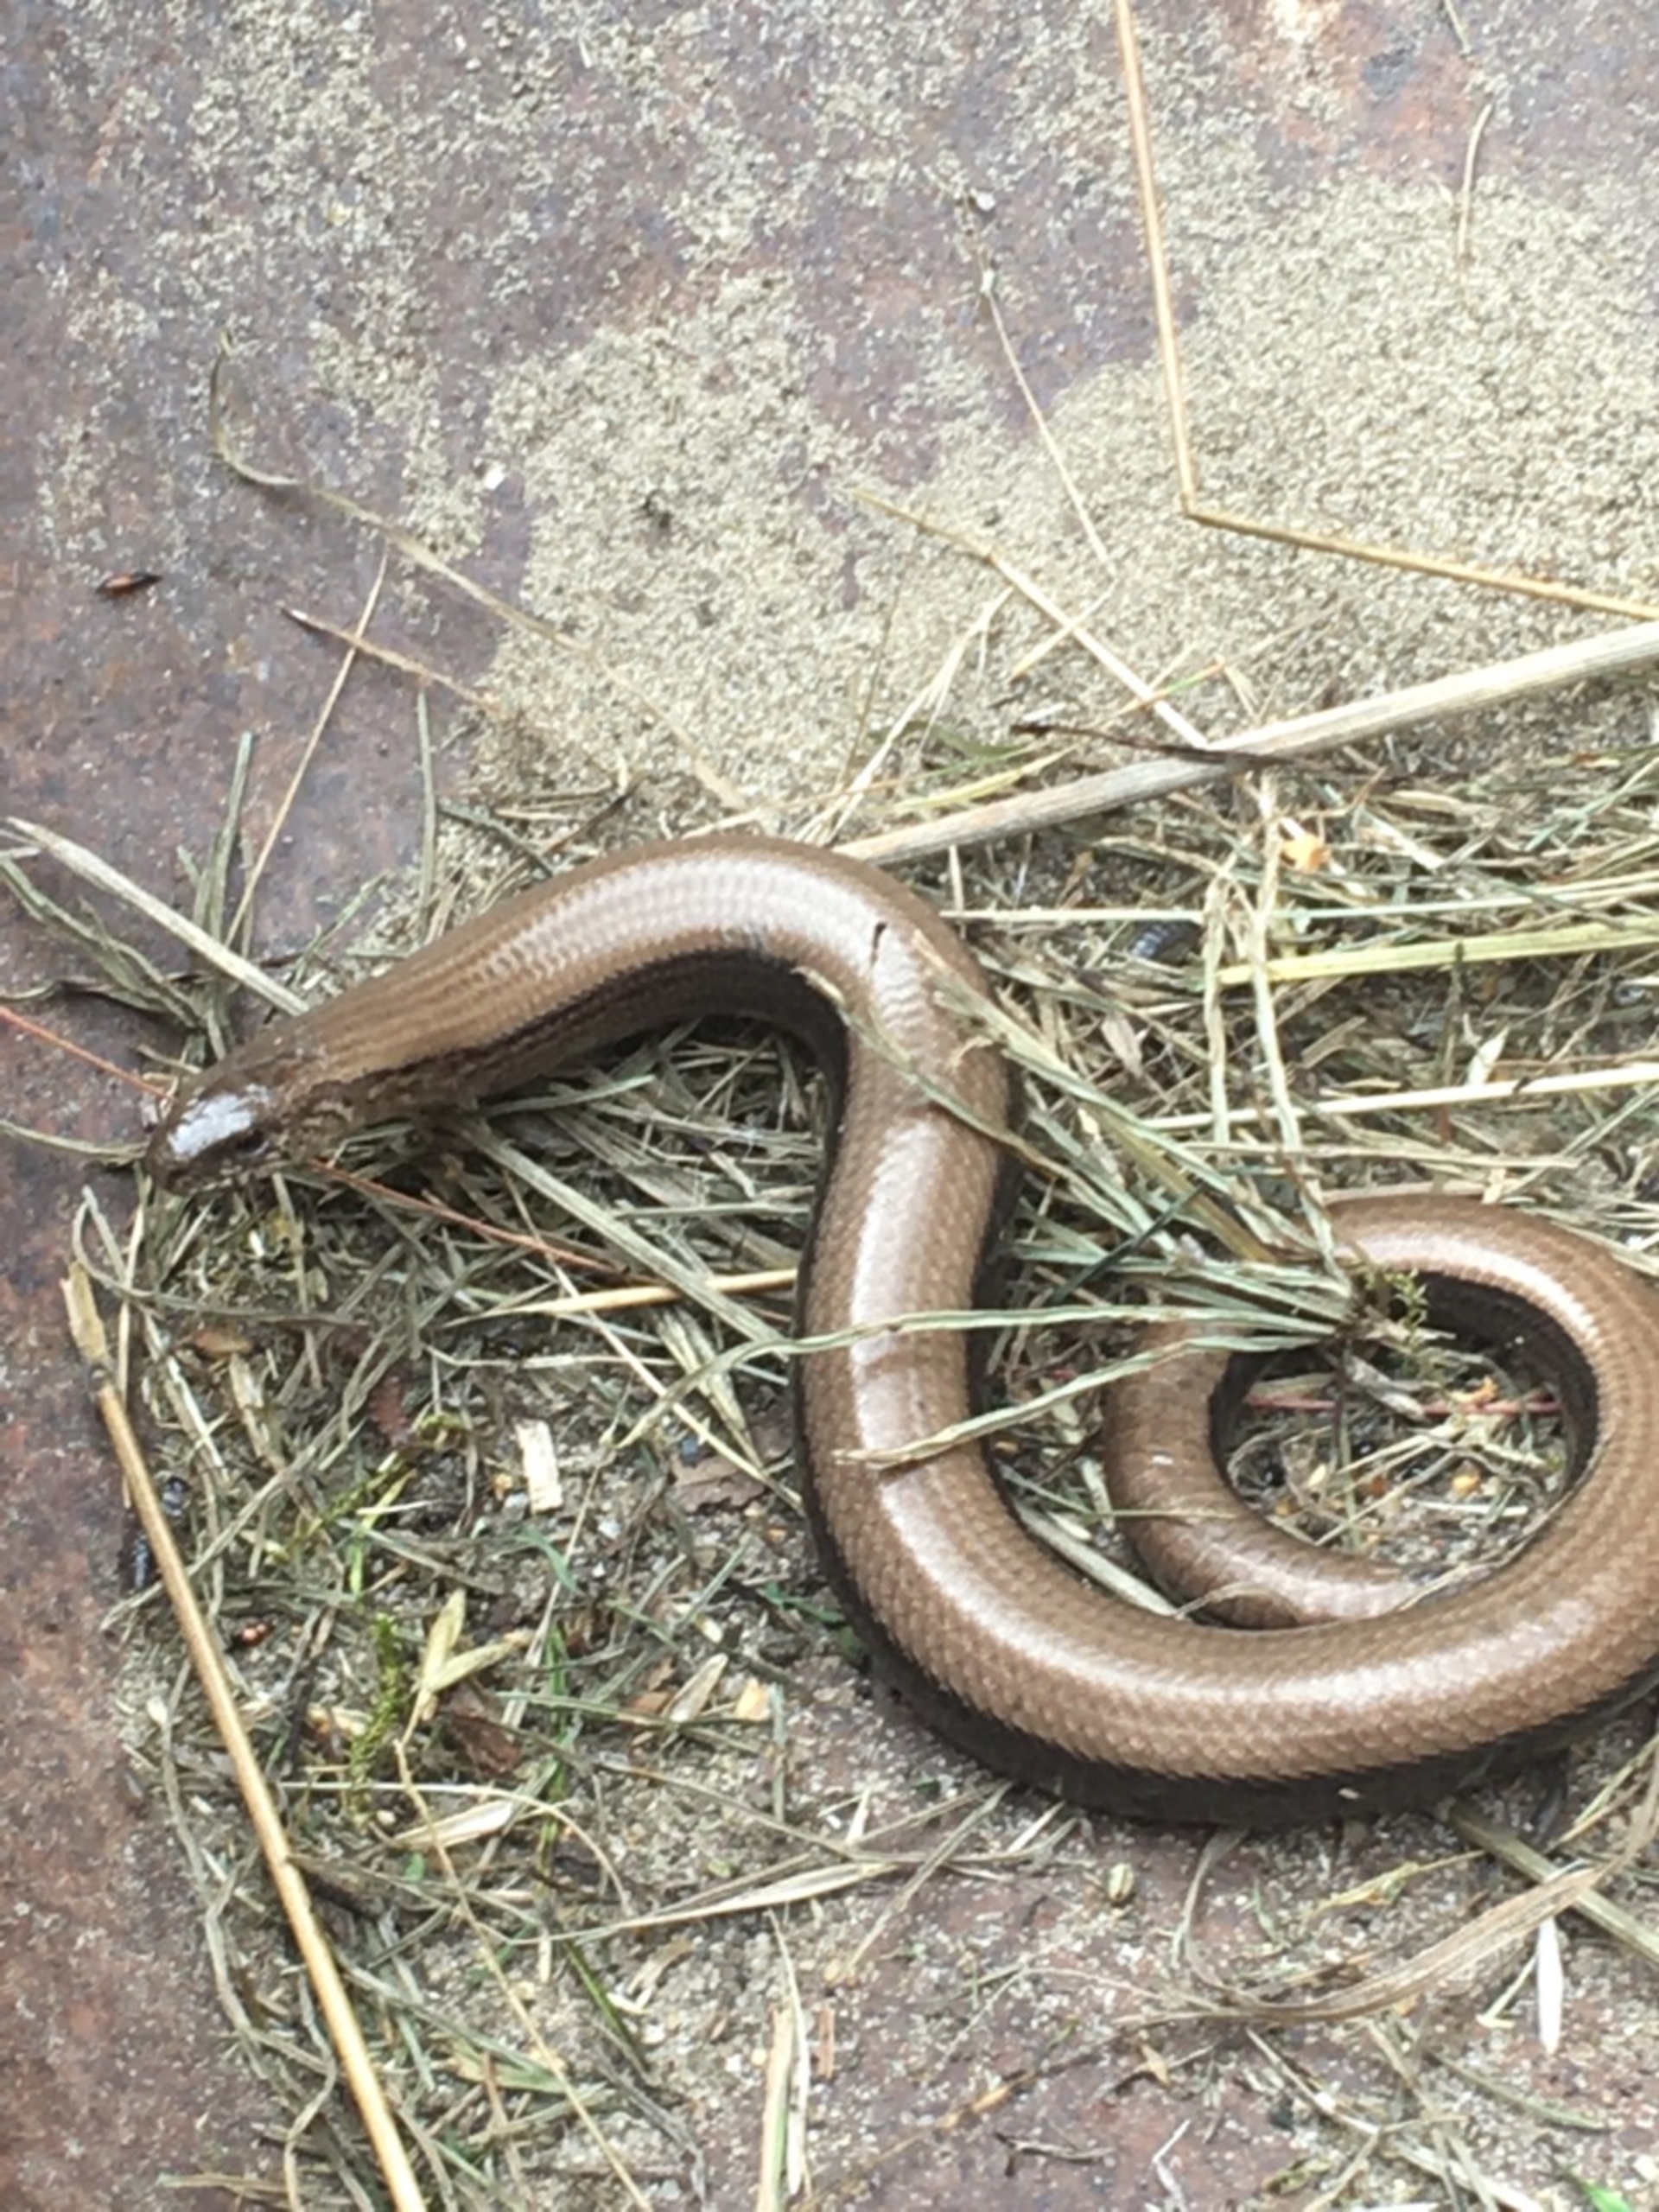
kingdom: Animalia
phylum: Chordata
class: Squamata
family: Anguidae
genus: Anguis
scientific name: Anguis fragilis
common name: Stålorm
